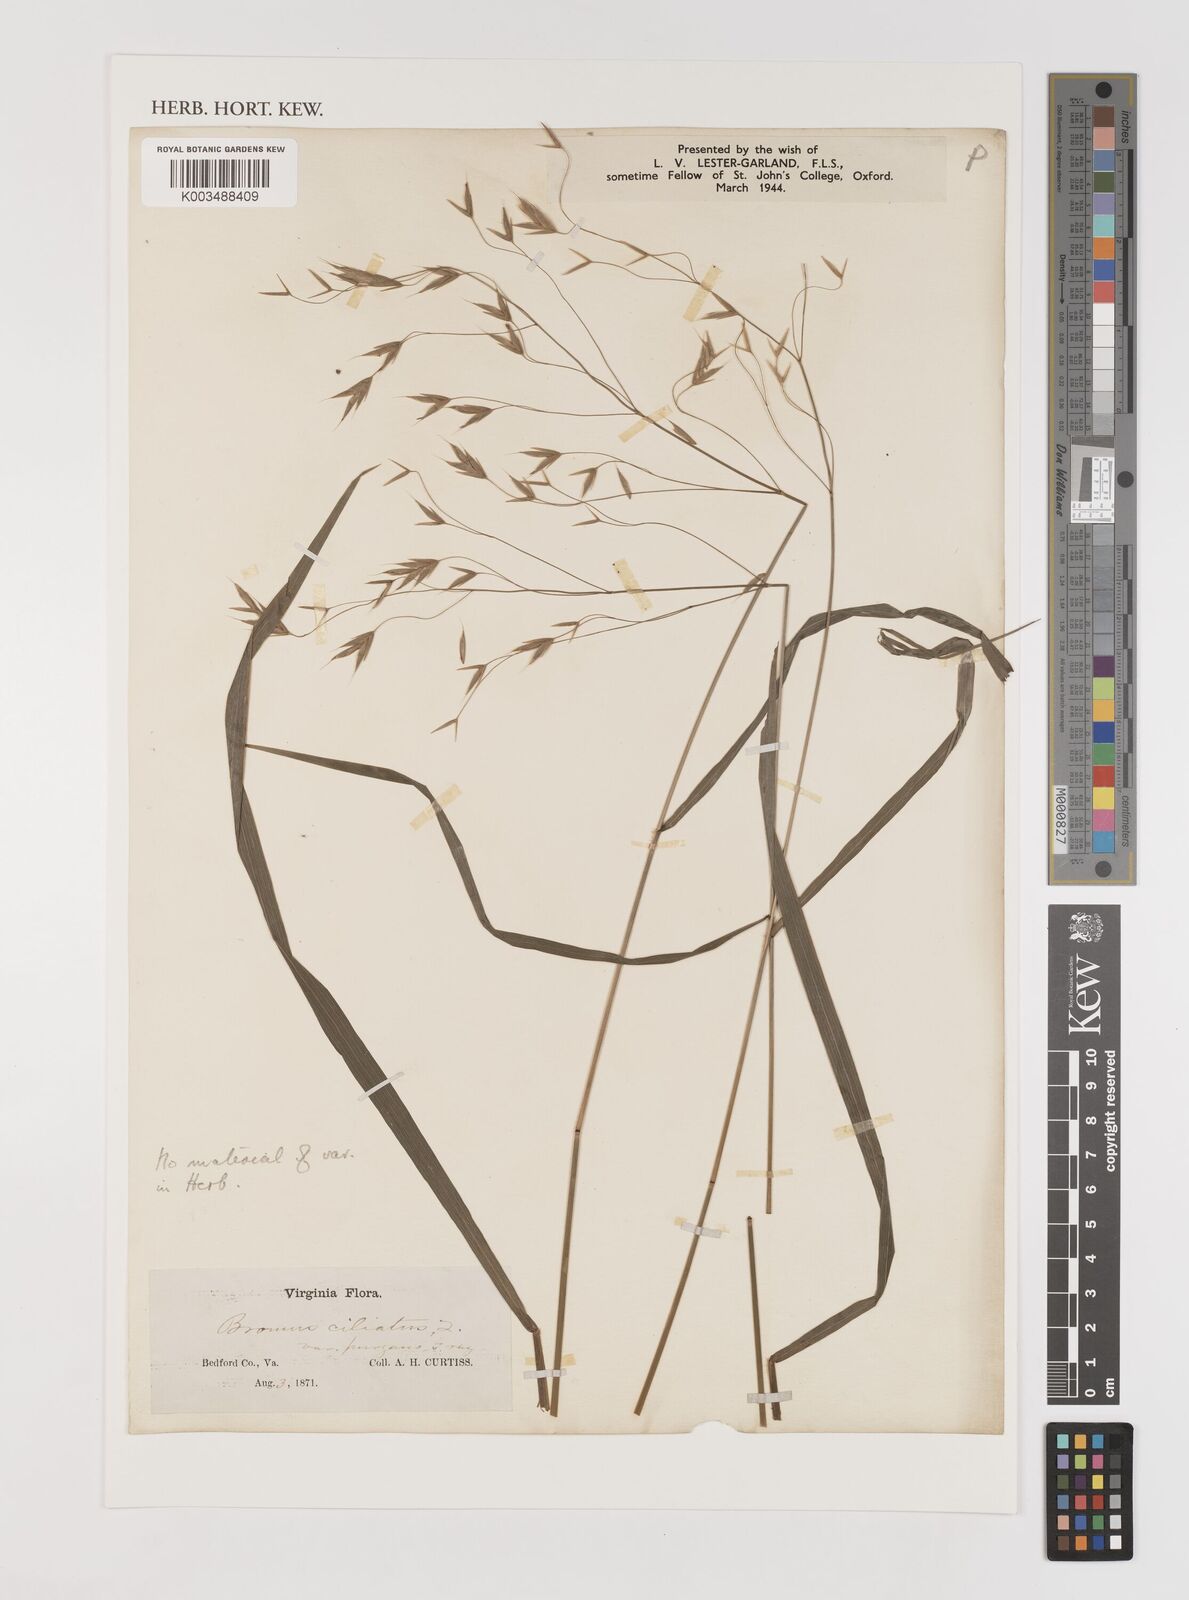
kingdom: Plantae
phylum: Tracheophyta
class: Liliopsida
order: Poales
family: Poaceae
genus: Bromus
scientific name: Bromus ciliatus
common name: Fringe brome
